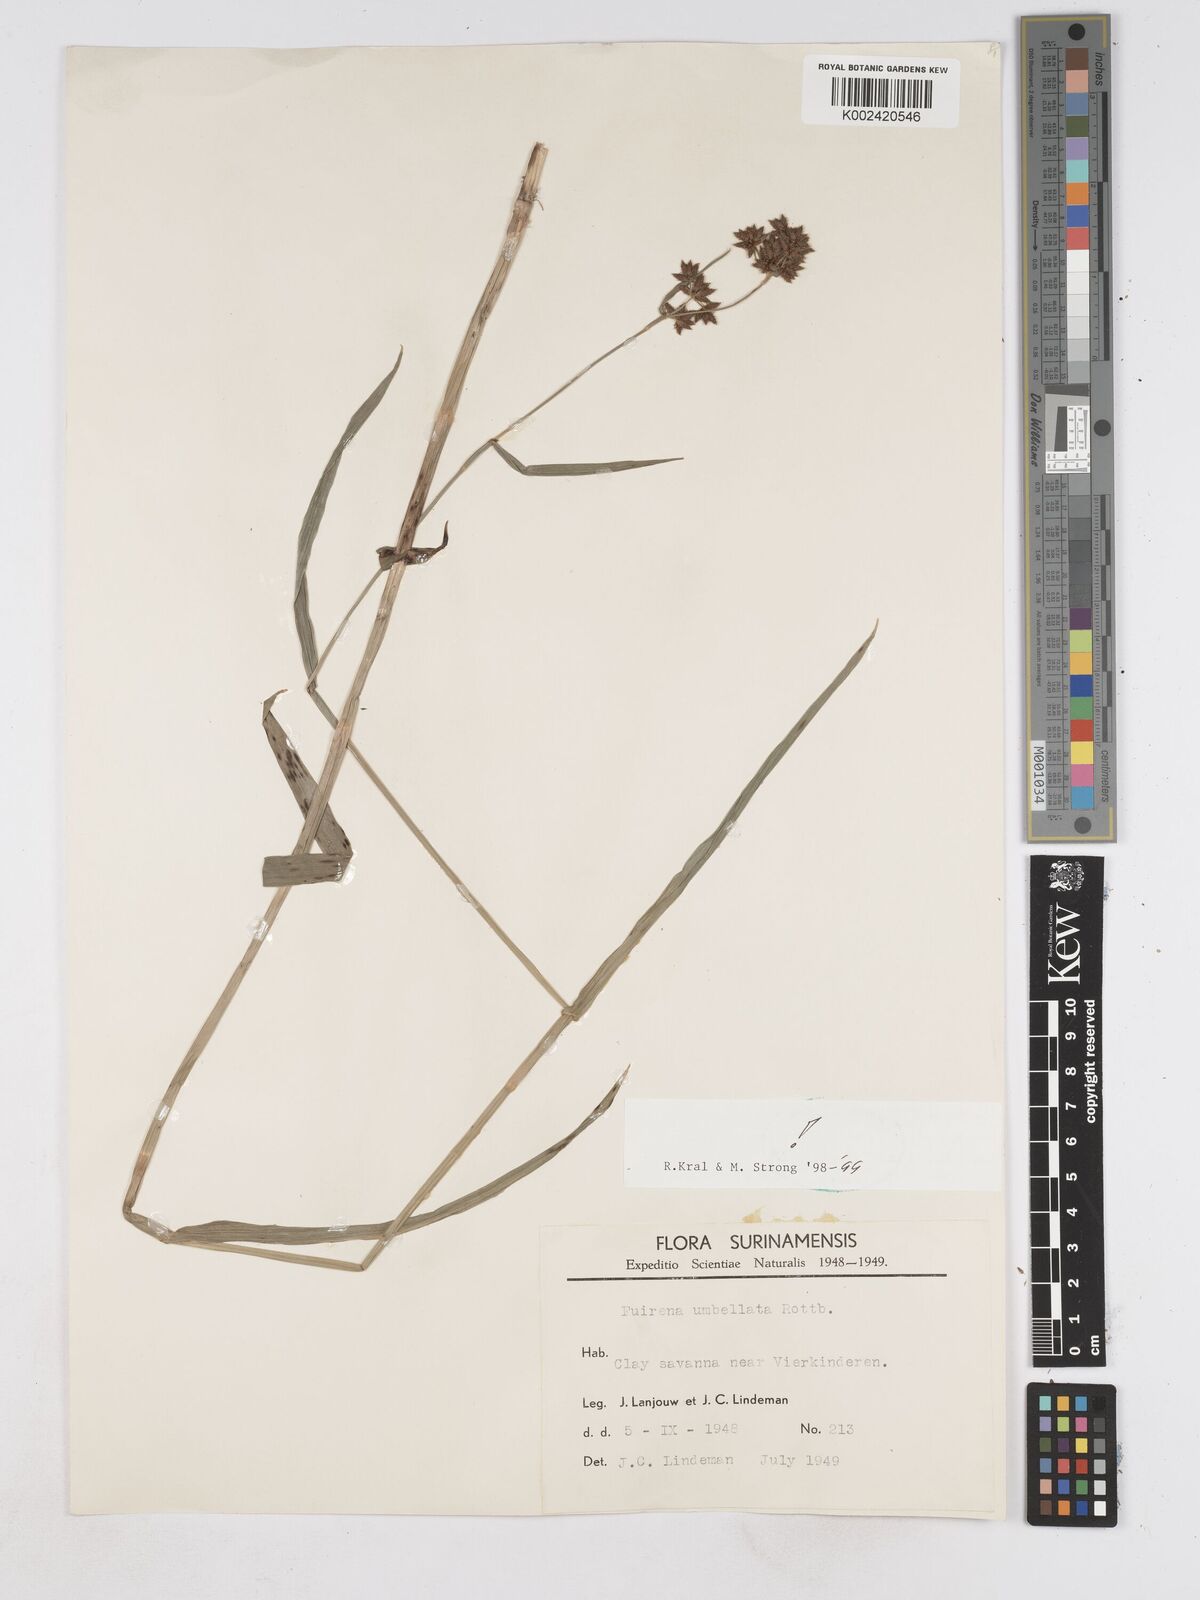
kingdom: Plantae
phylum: Tracheophyta
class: Liliopsida
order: Poales
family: Cyperaceae
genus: Fuirena
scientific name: Fuirena umbellata
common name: Yefen
